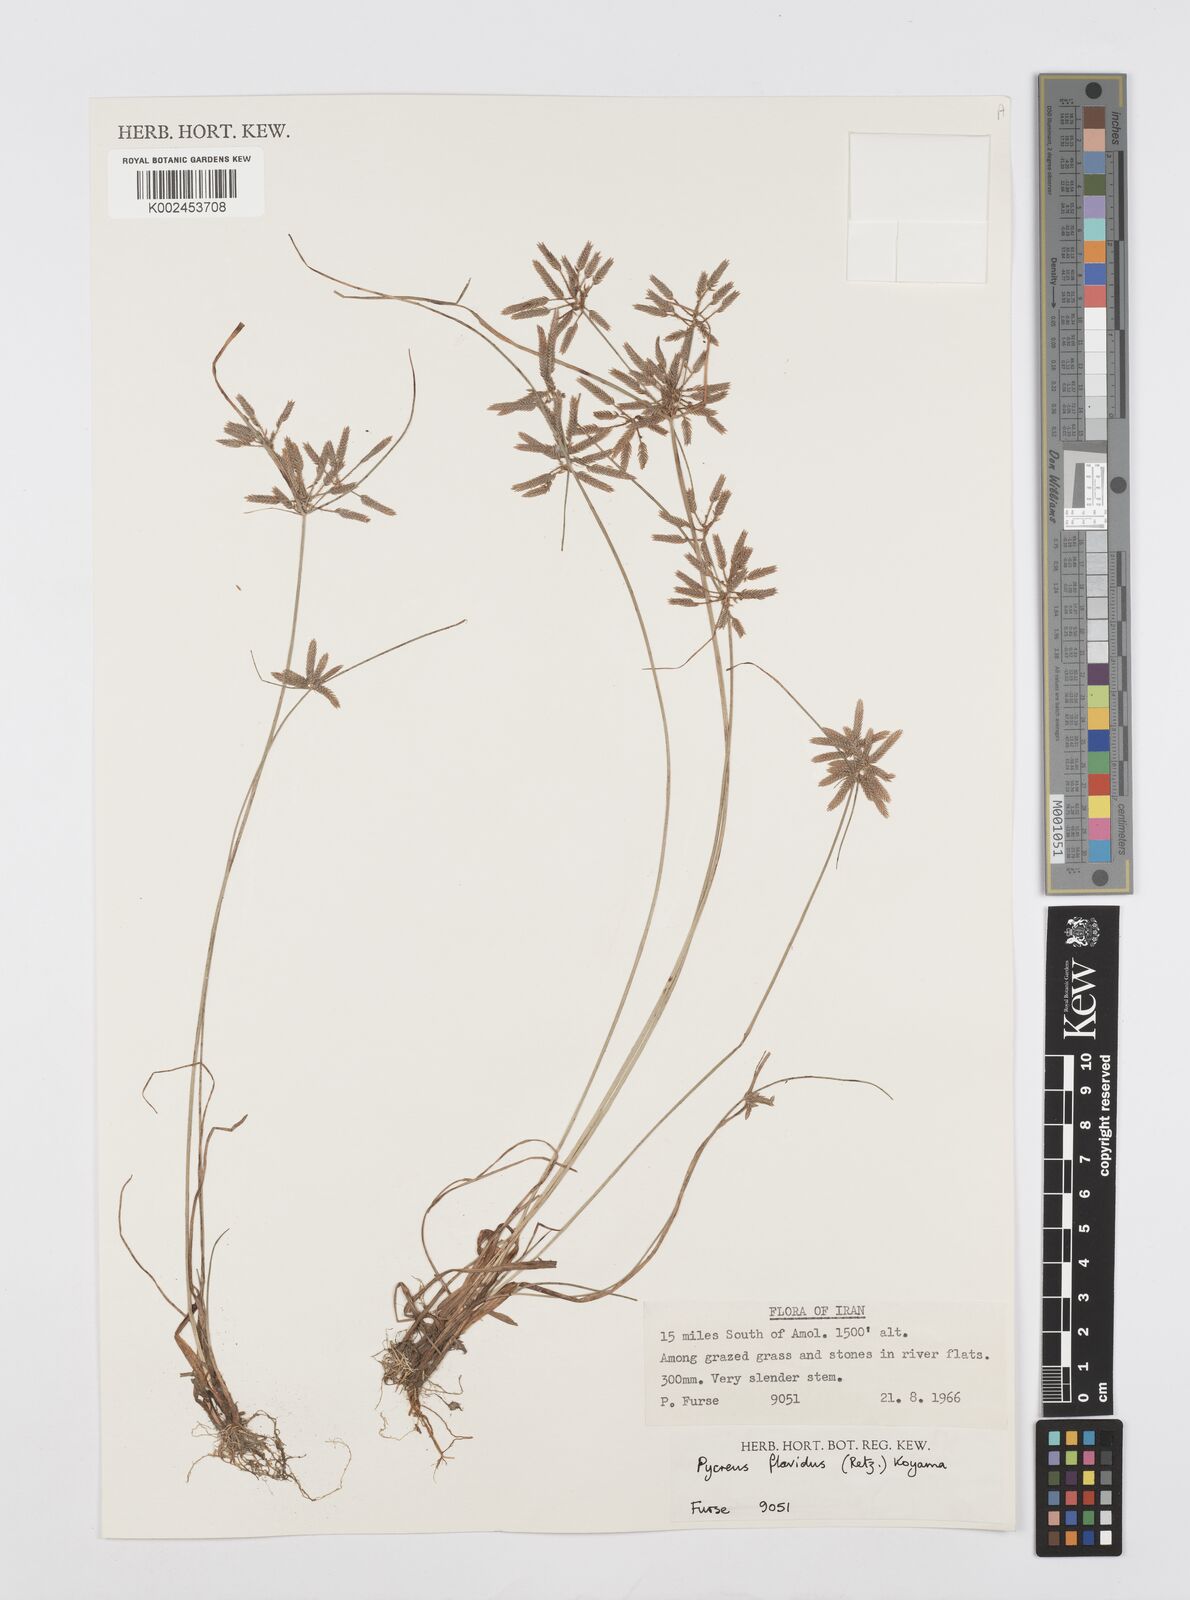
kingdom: Plantae
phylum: Tracheophyta
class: Liliopsida
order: Poales
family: Cyperaceae
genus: Cyperus
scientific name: Cyperus flavidus
